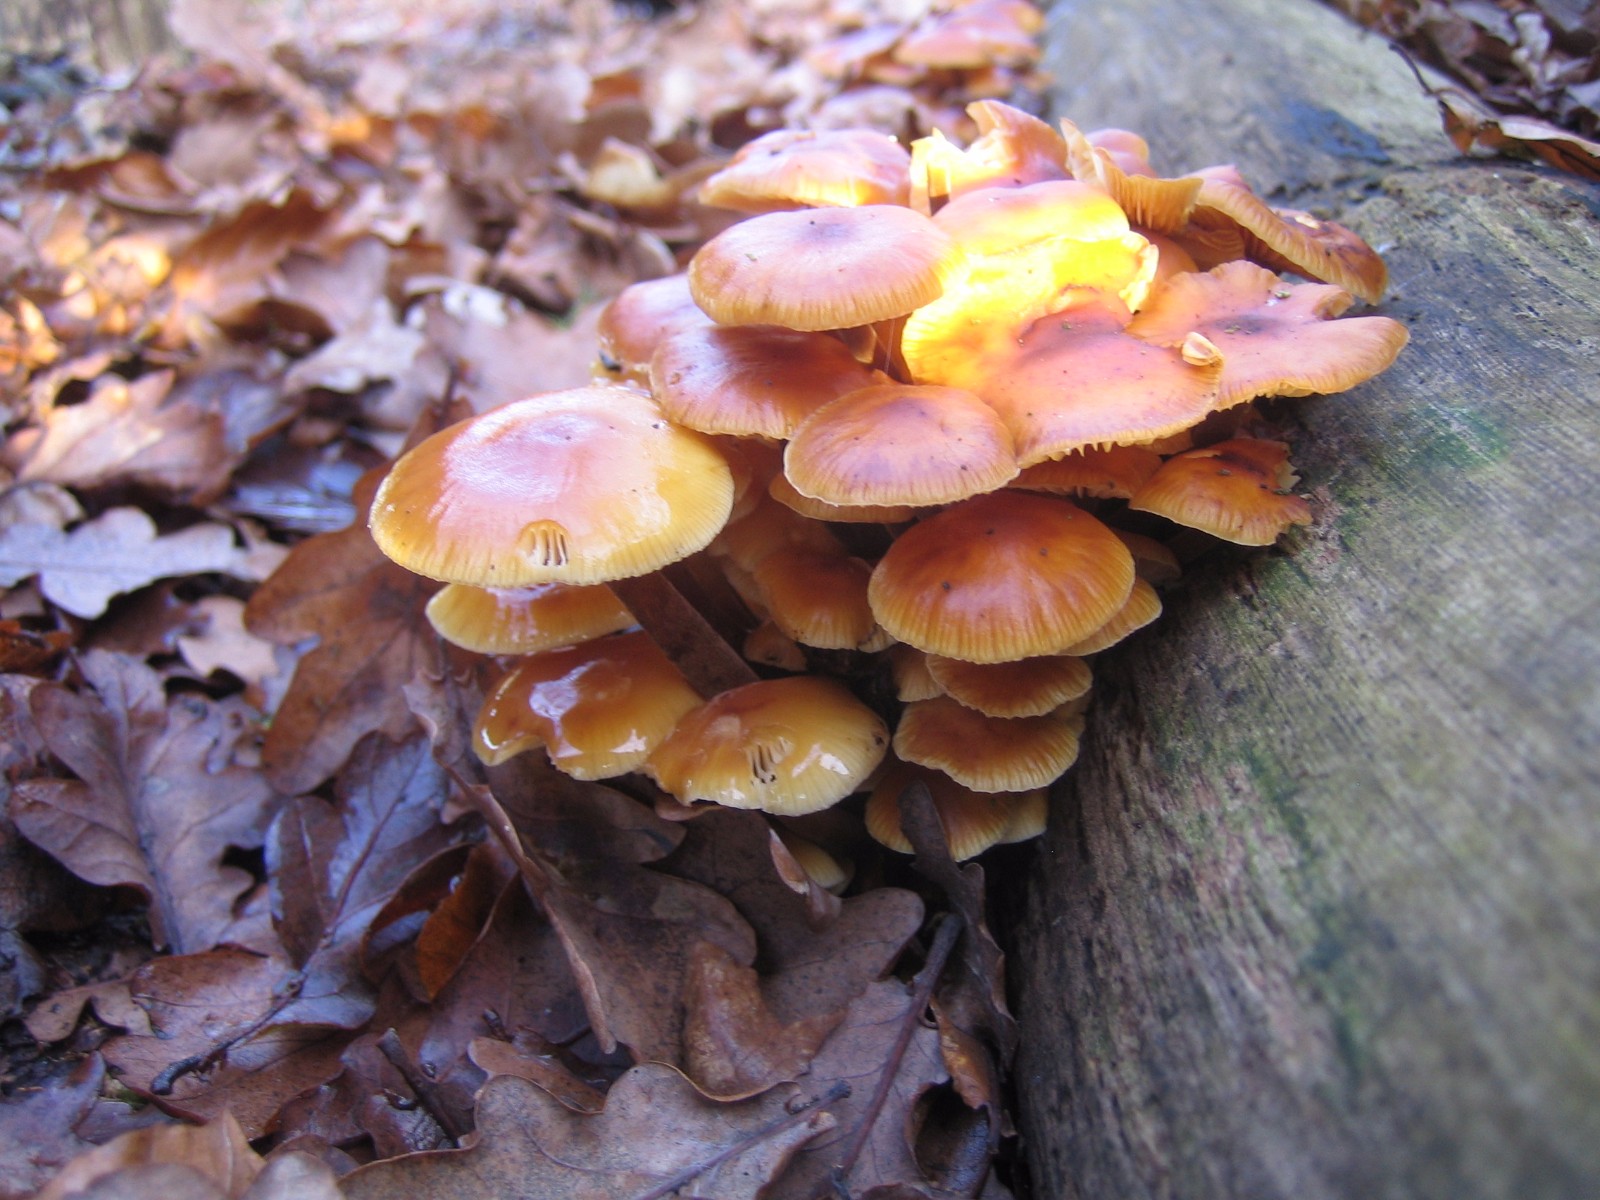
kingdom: Fungi
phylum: Basidiomycota
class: Agaricomycetes
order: Agaricales
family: Physalacriaceae
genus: Flammulina
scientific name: Flammulina velutipes
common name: gul fløjlsfod
